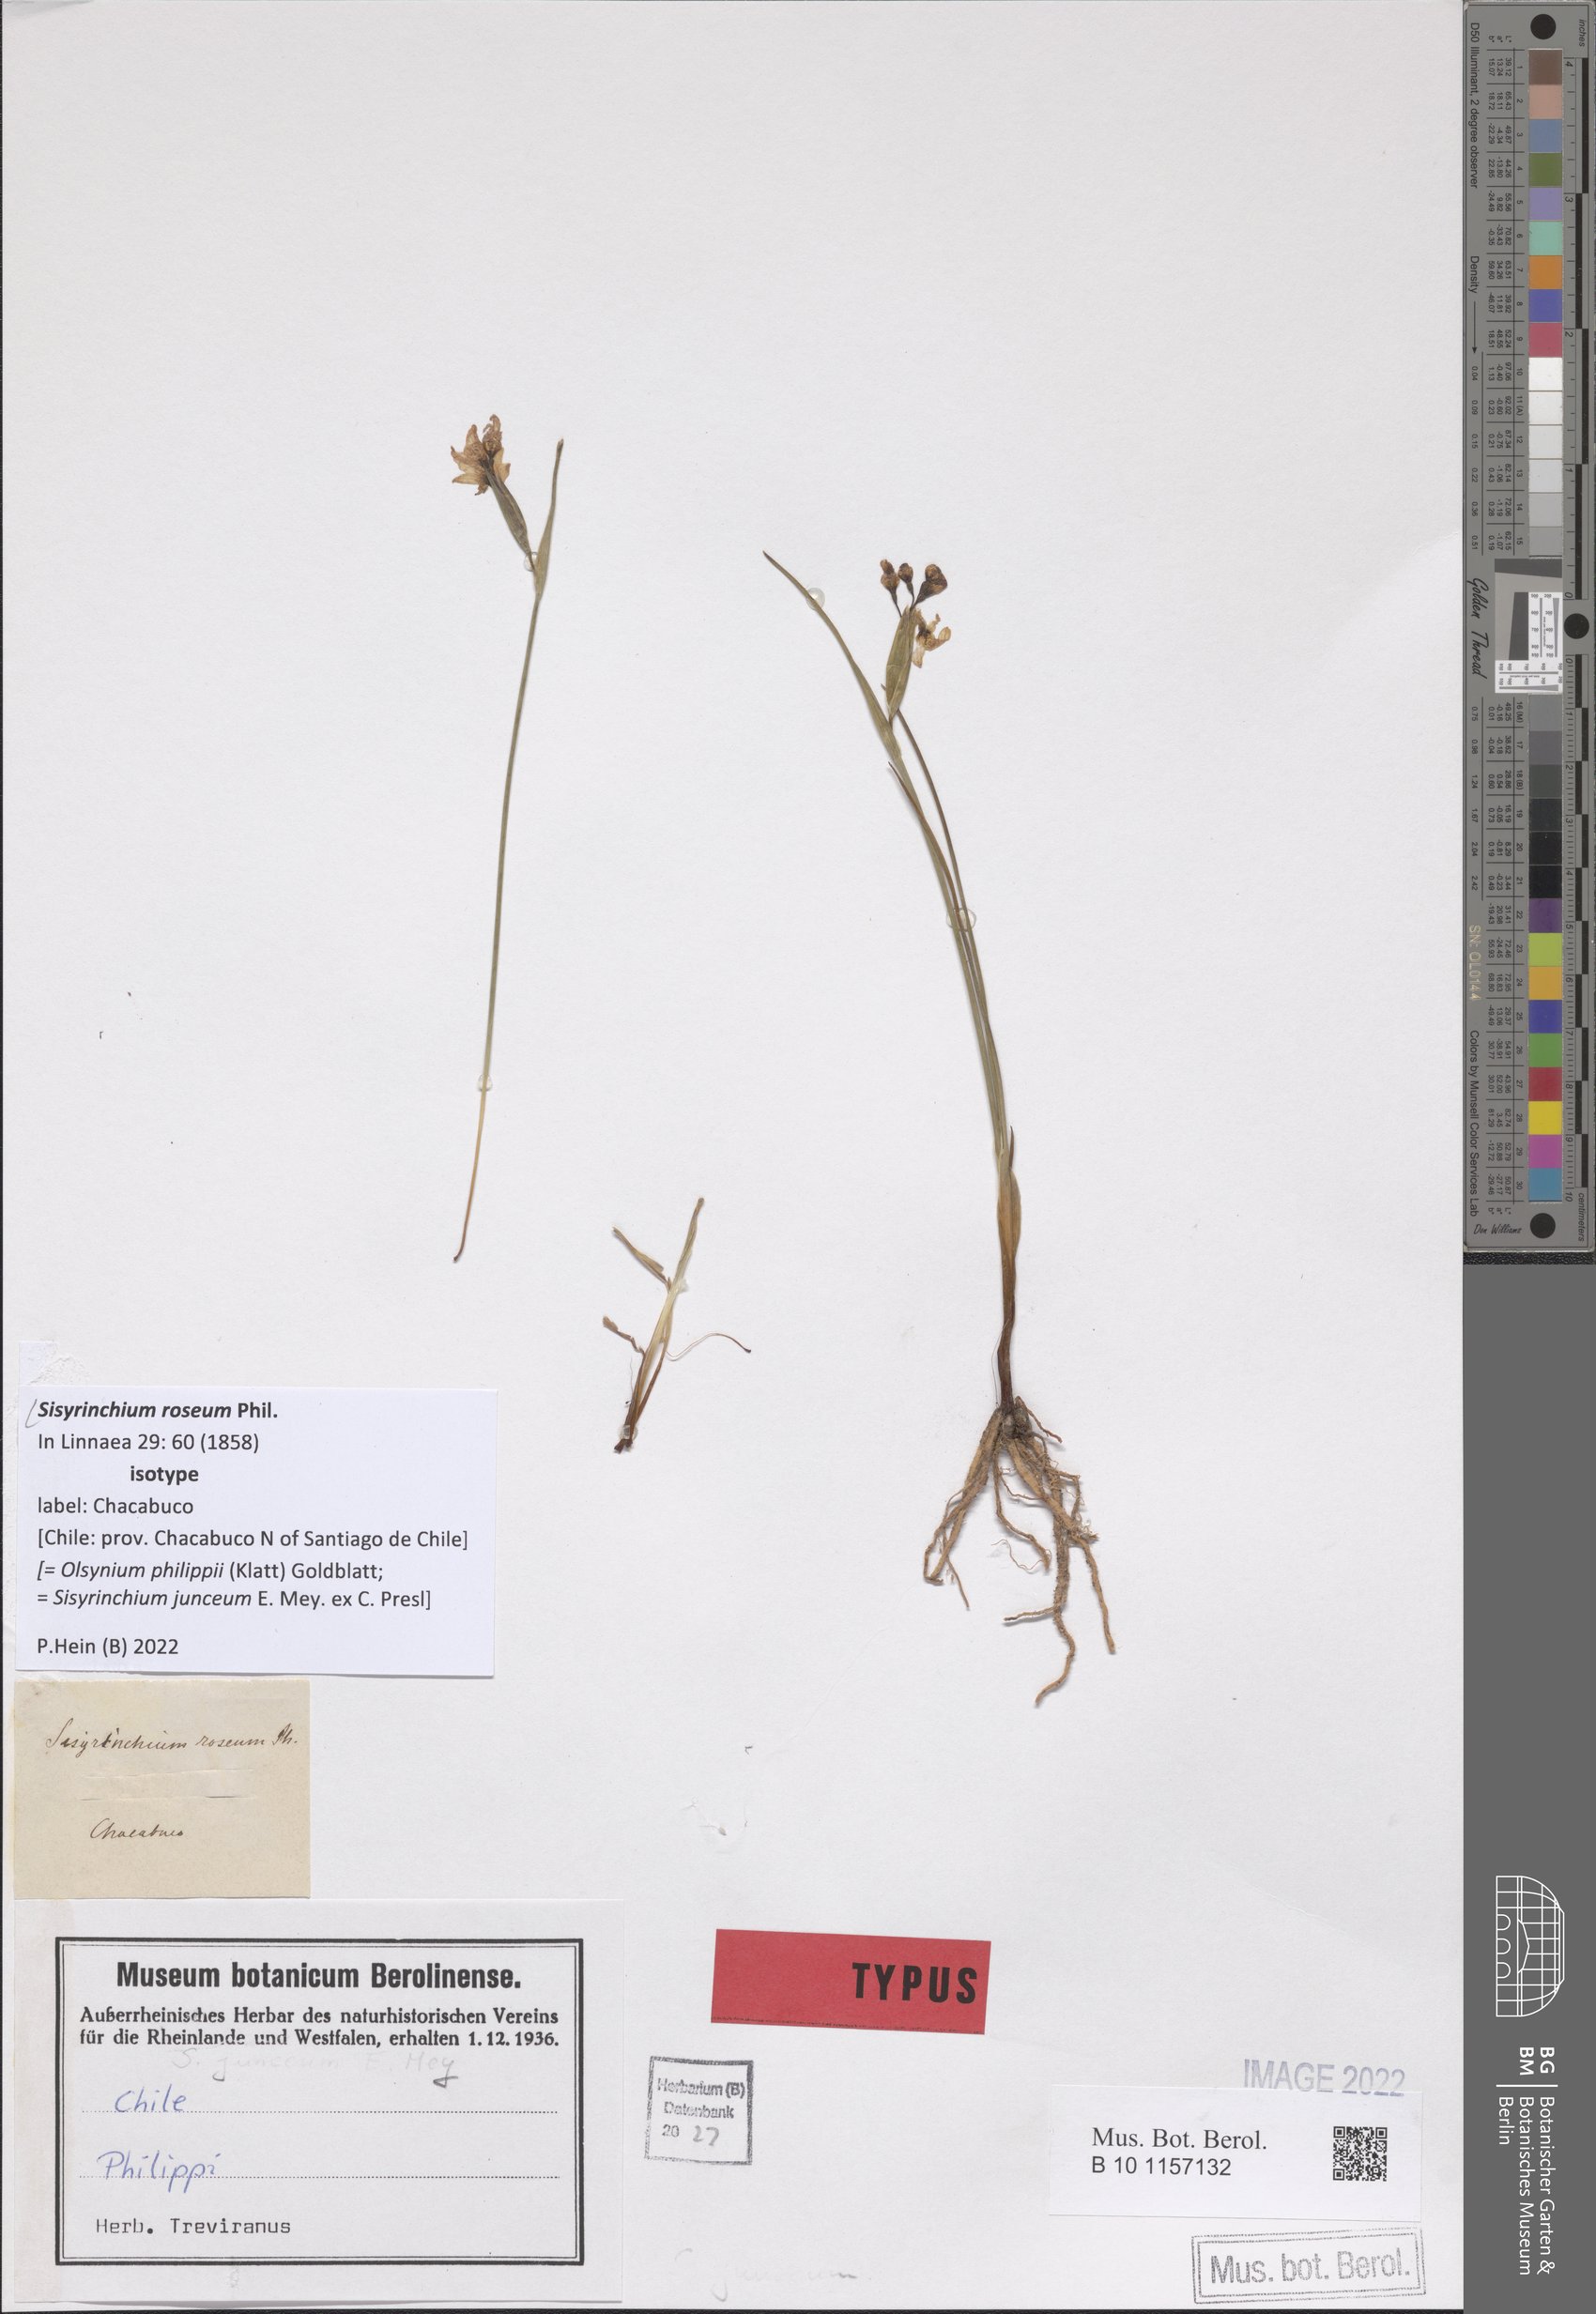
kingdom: Plantae
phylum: Tracheophyta
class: Liliopsida
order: Asparagales
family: Iridaceae
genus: Olsynium
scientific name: Olsynium philippii
